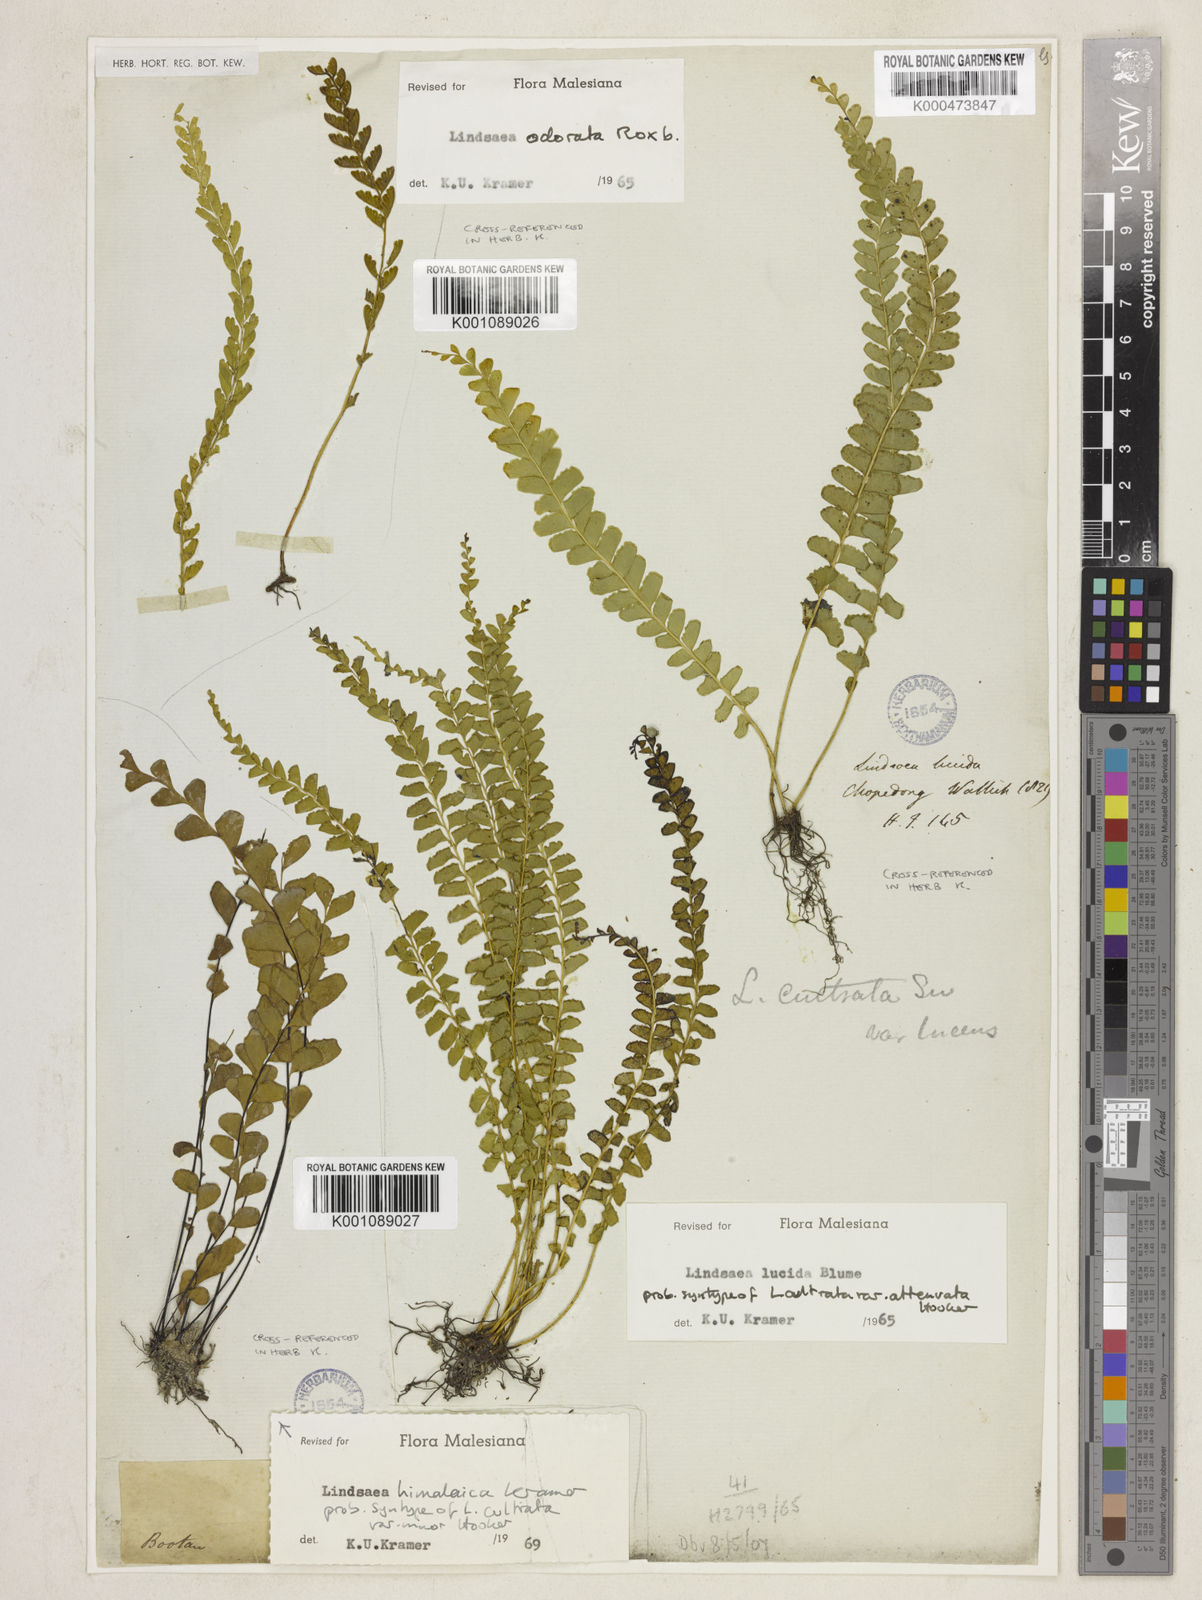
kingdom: Plantae
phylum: Tracheophyta
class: Polypodiopsida
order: Polypodiales
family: Lindsaeaceae
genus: Lindsaea
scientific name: Lindsaea lucida
